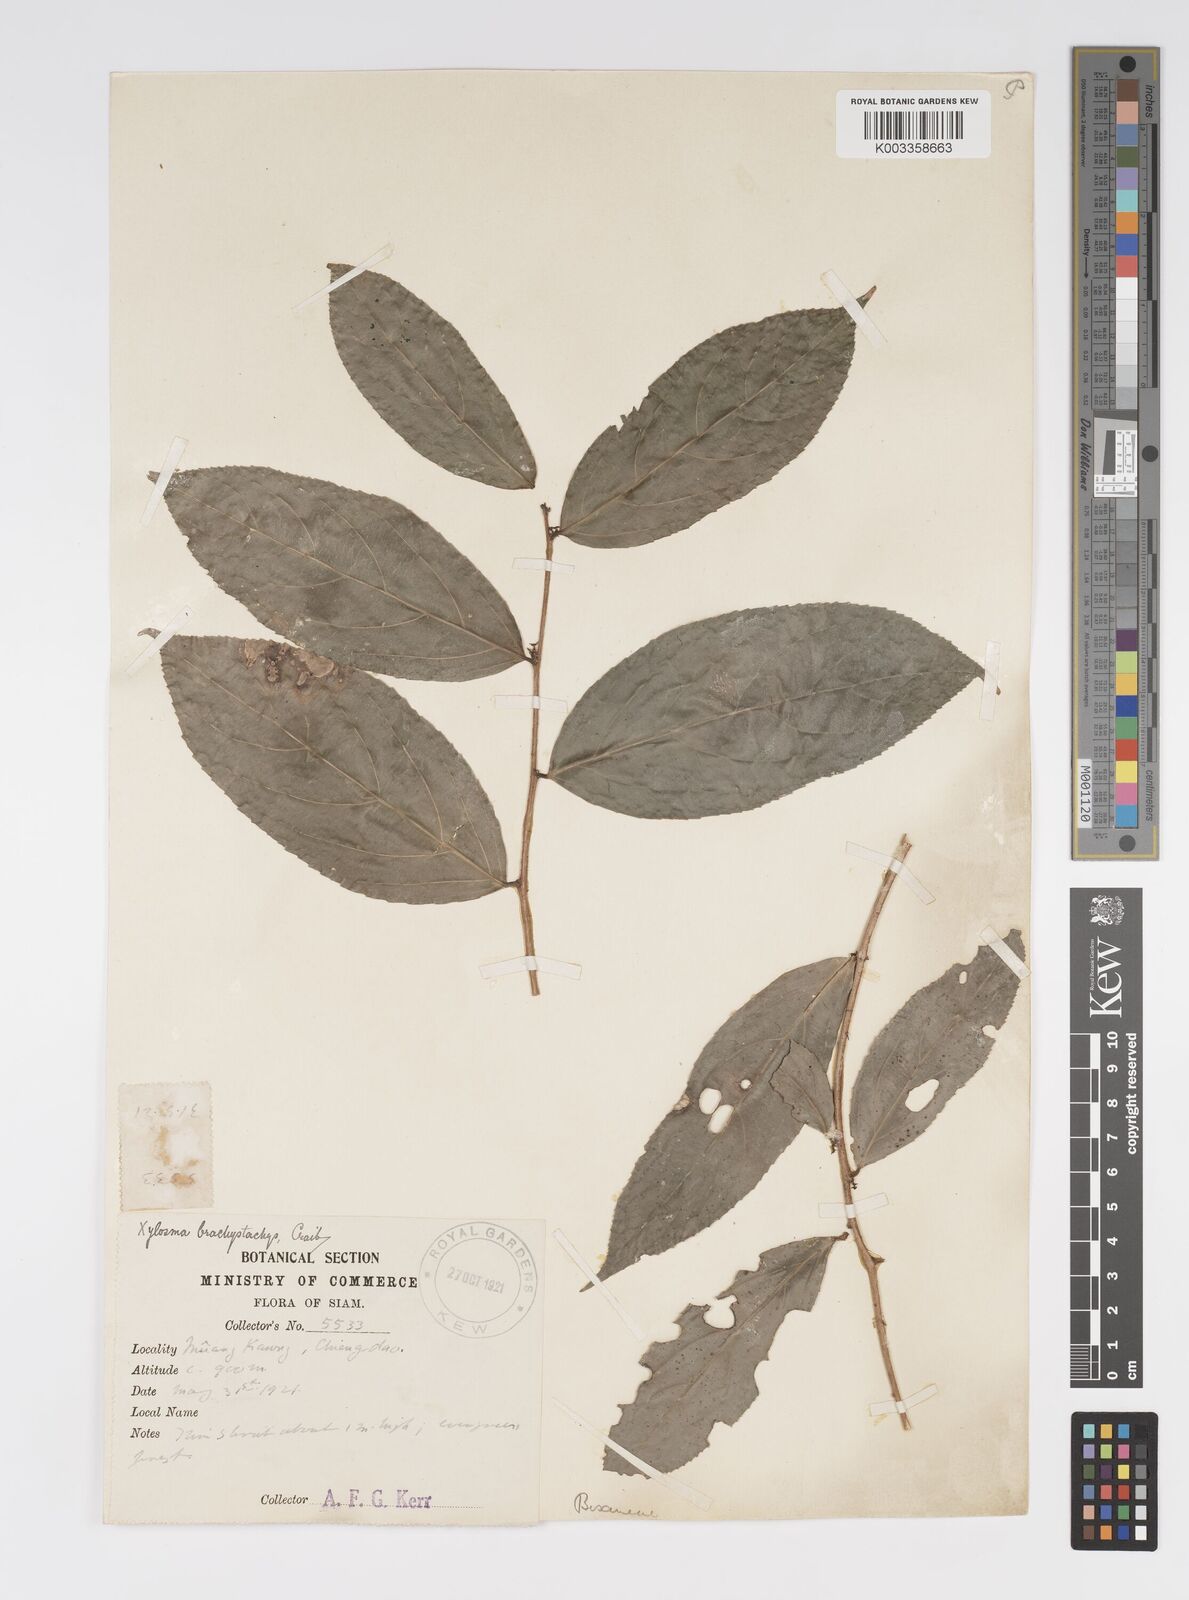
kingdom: Plantae
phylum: Tracheophyta
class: Magnoliopsida
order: Malpighiales
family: Salicaceae
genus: Xylosma
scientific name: Xylosma brachystachys
